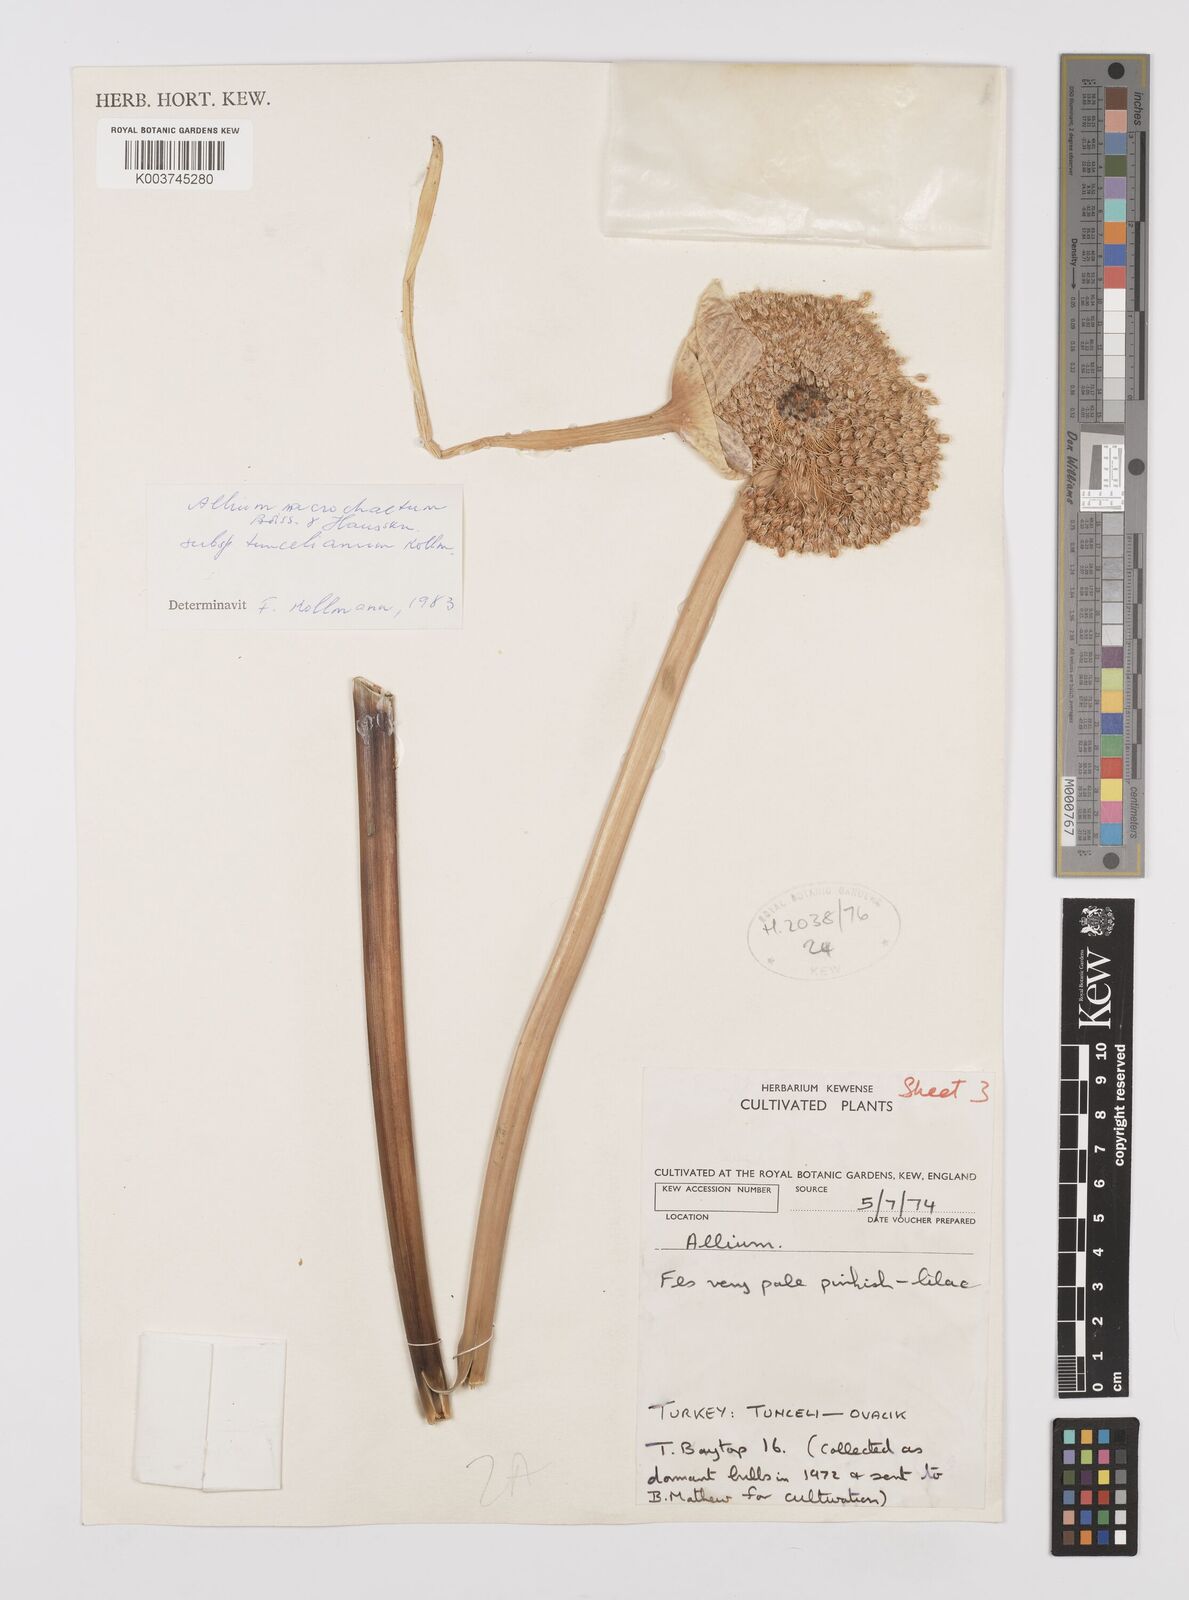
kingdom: Plantae
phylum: Tracheophyta
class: Liliopsida
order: Asparagales
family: Amaryllidaceae
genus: Allium
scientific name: Allium tuncelianum
